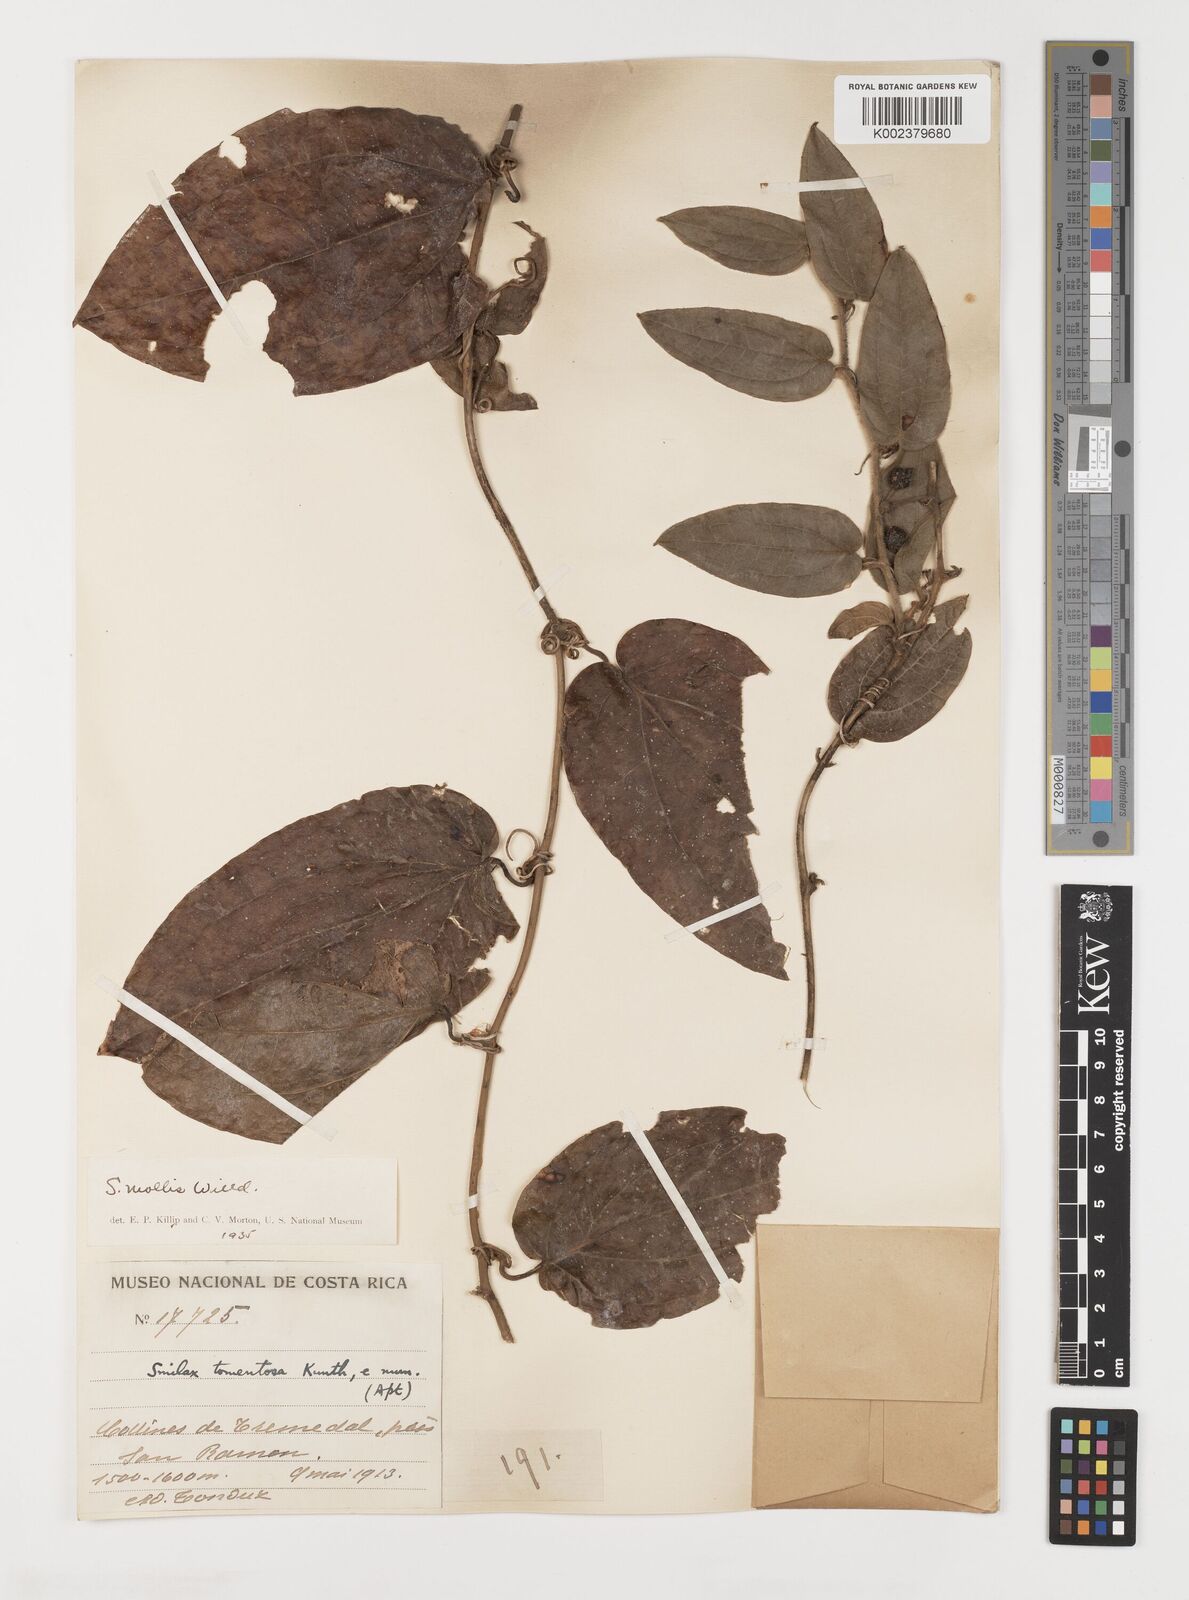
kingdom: Plantae
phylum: Tracheophyta
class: Liliopsida
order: Liliales
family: Smilacaceae
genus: Smilax
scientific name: Smilax mollis
